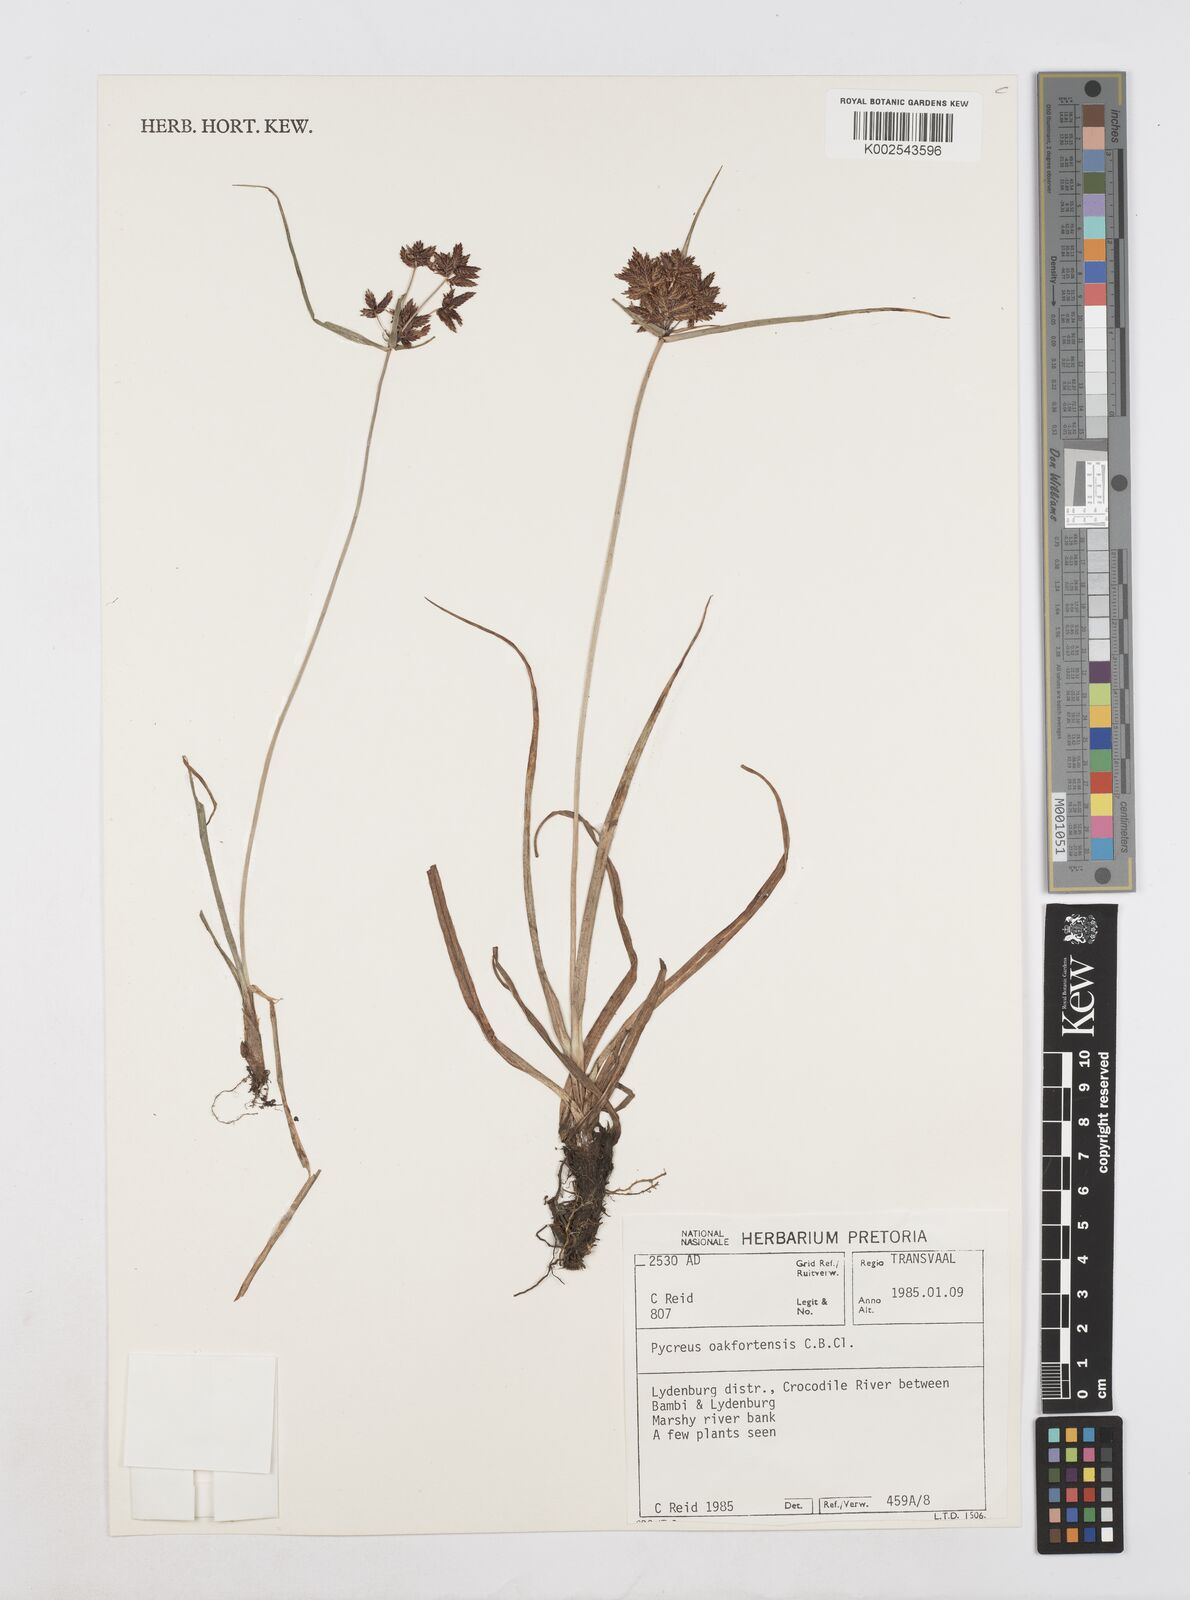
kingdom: Plantae
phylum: Tracheophyta
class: Liliopsida
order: Poales
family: Cyperaceae
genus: Cyperus
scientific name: Cyperus oakfortensis
